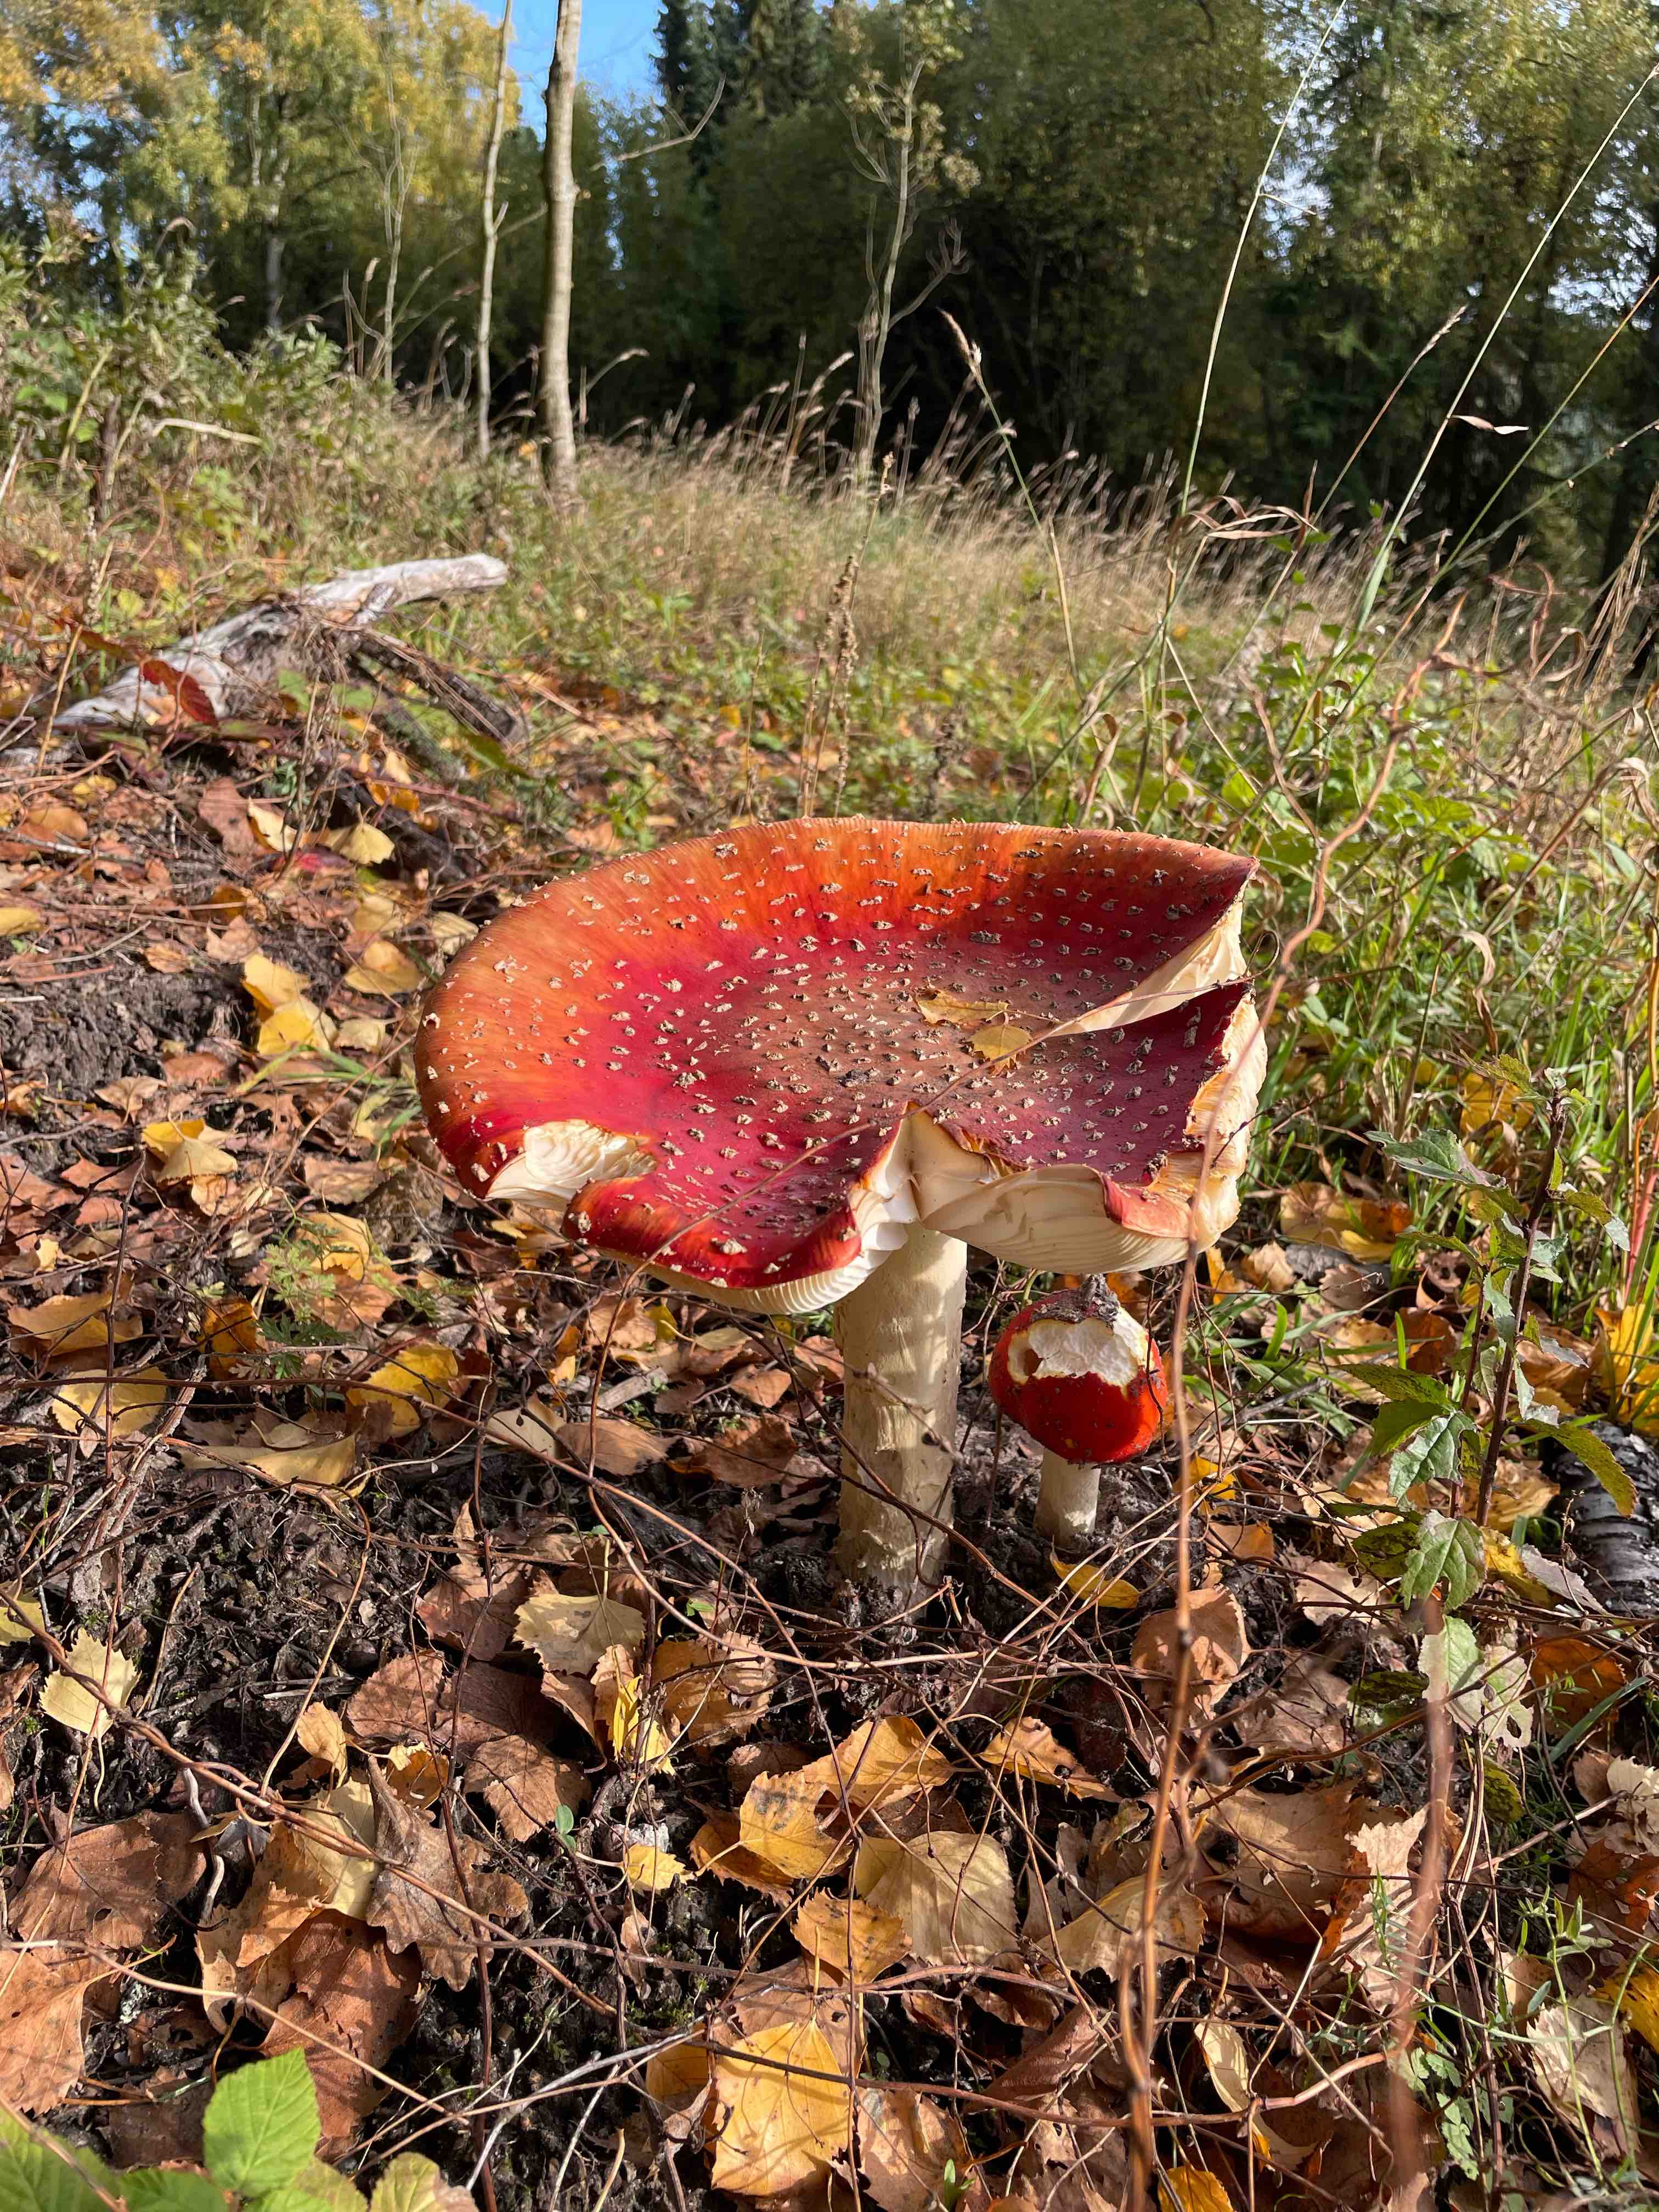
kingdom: Fungi
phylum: Basidiomycota
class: Agaricomycetes
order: Agaricales
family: Amanitaceae
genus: Amanita
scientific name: Amanita muscaria
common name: rød fluesvamp
